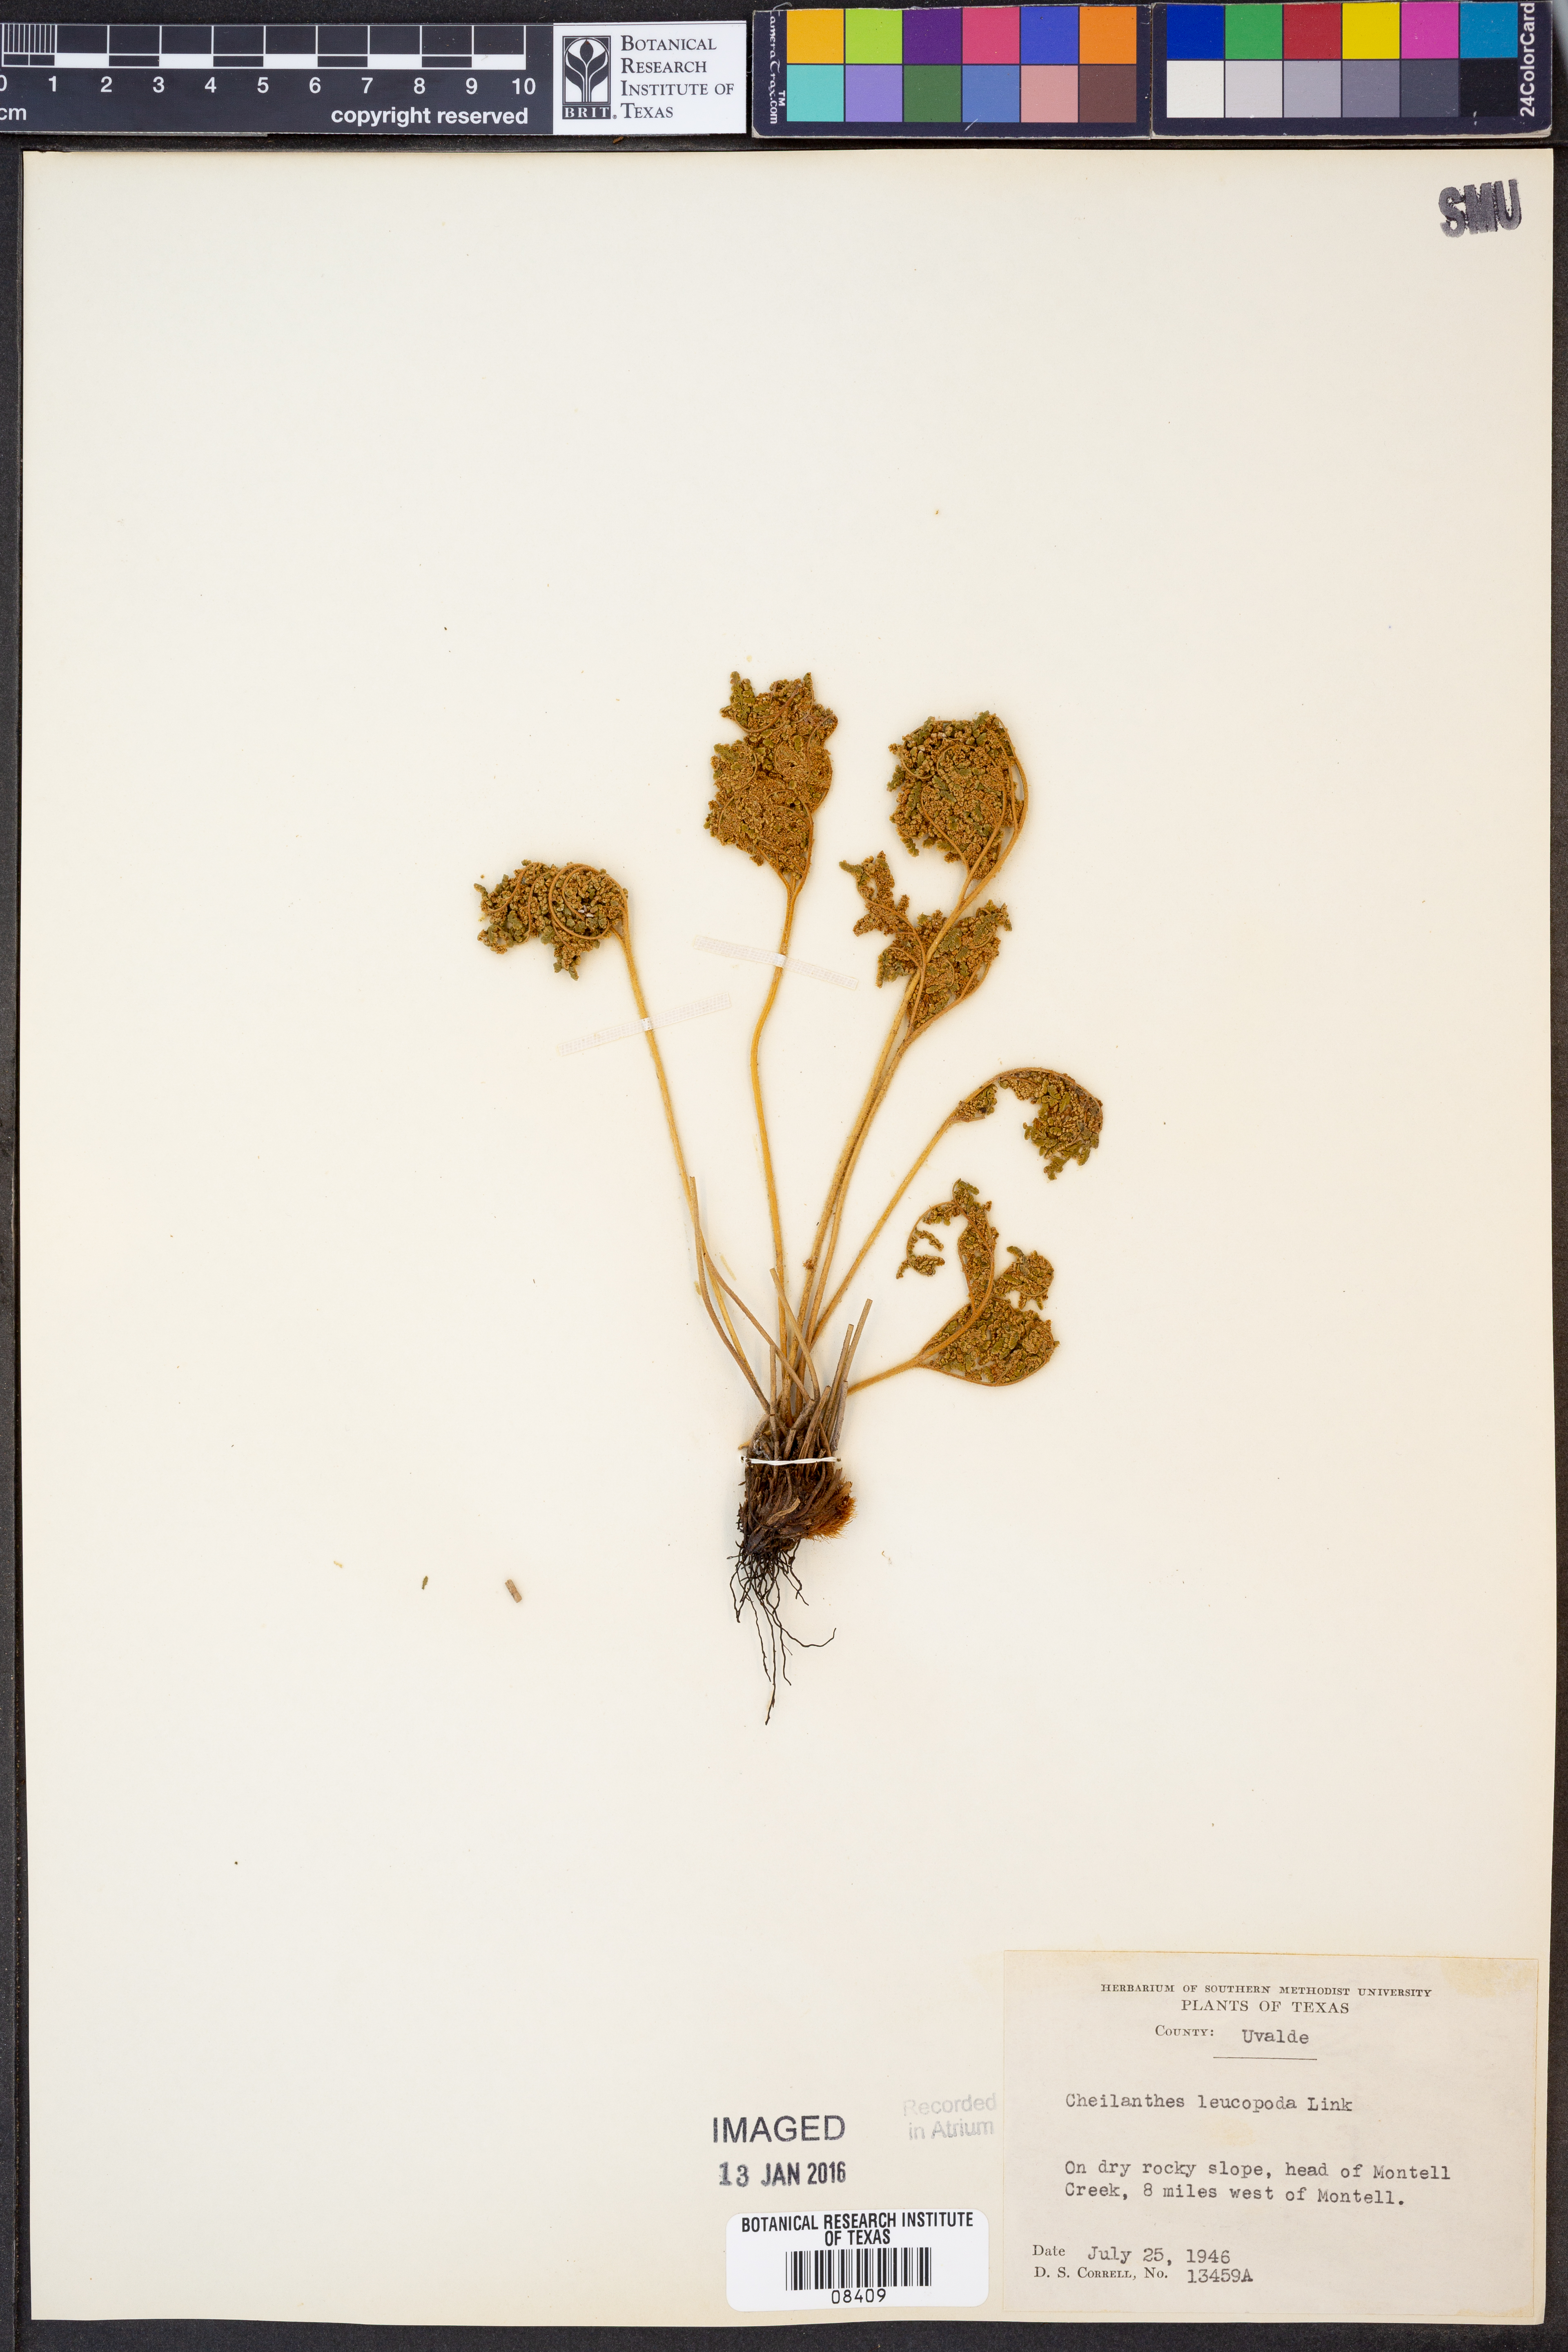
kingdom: Plantae
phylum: Tracheophyta
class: Polypodiopsida
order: Polypodiales
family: Pteridaceae
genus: Cheilanthes
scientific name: Cheilanthes leucopoda
